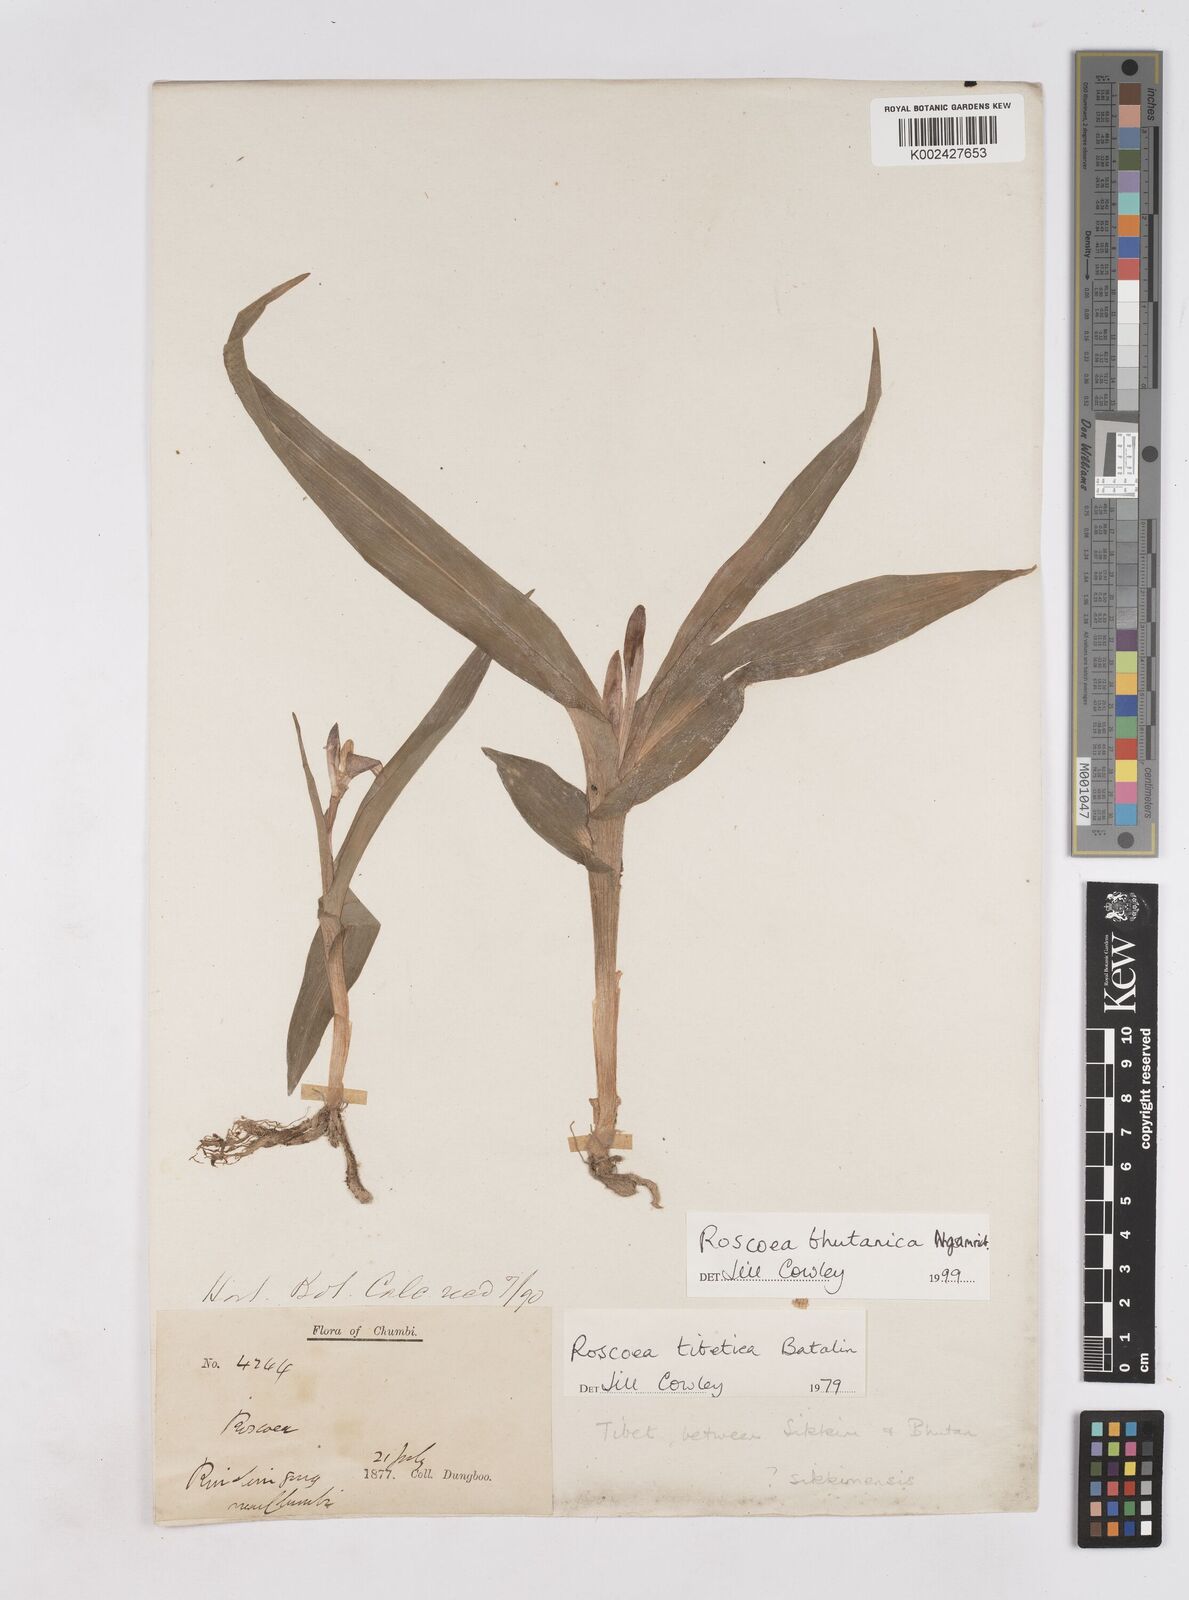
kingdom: Plantae
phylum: Tracheophyta
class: Liliopsida
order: Zingiberales
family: Zingiberaceae
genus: Roscoea
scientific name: Roscoea tibetica
